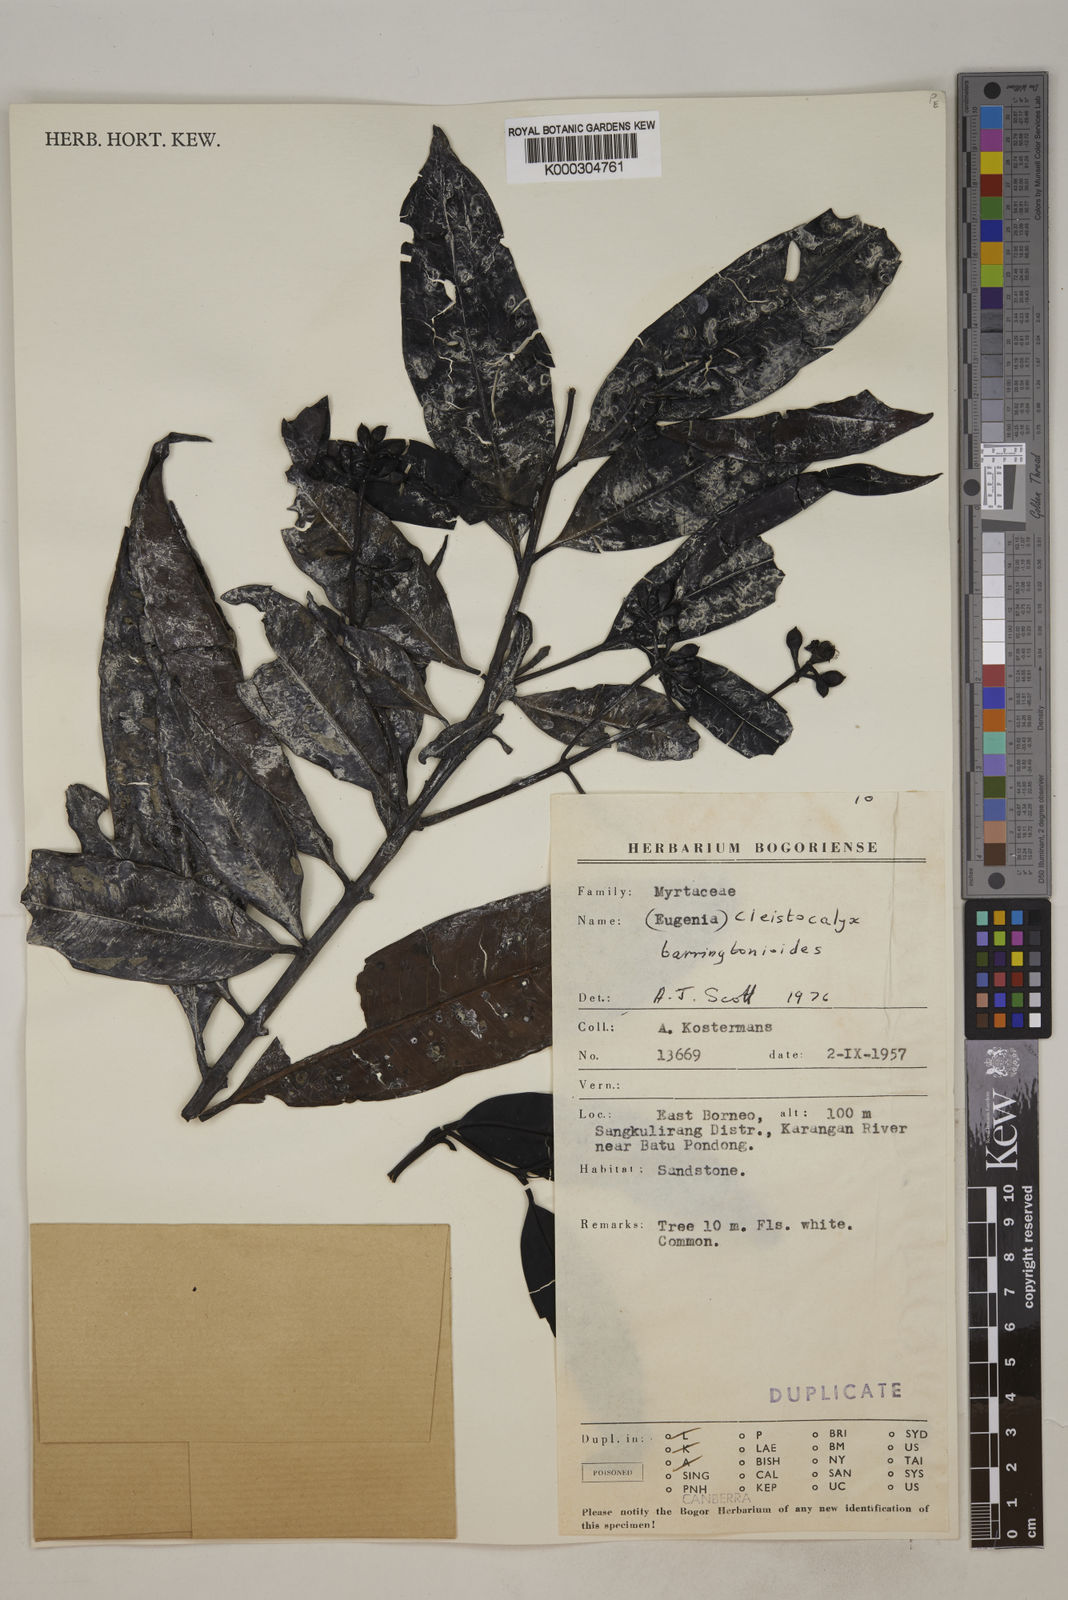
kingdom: Plantae
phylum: Tracheophyta
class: Magnoliopsida
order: Myrtales
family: Myrtaceae
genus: Syzygium
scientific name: Syzygium barringtonioides
